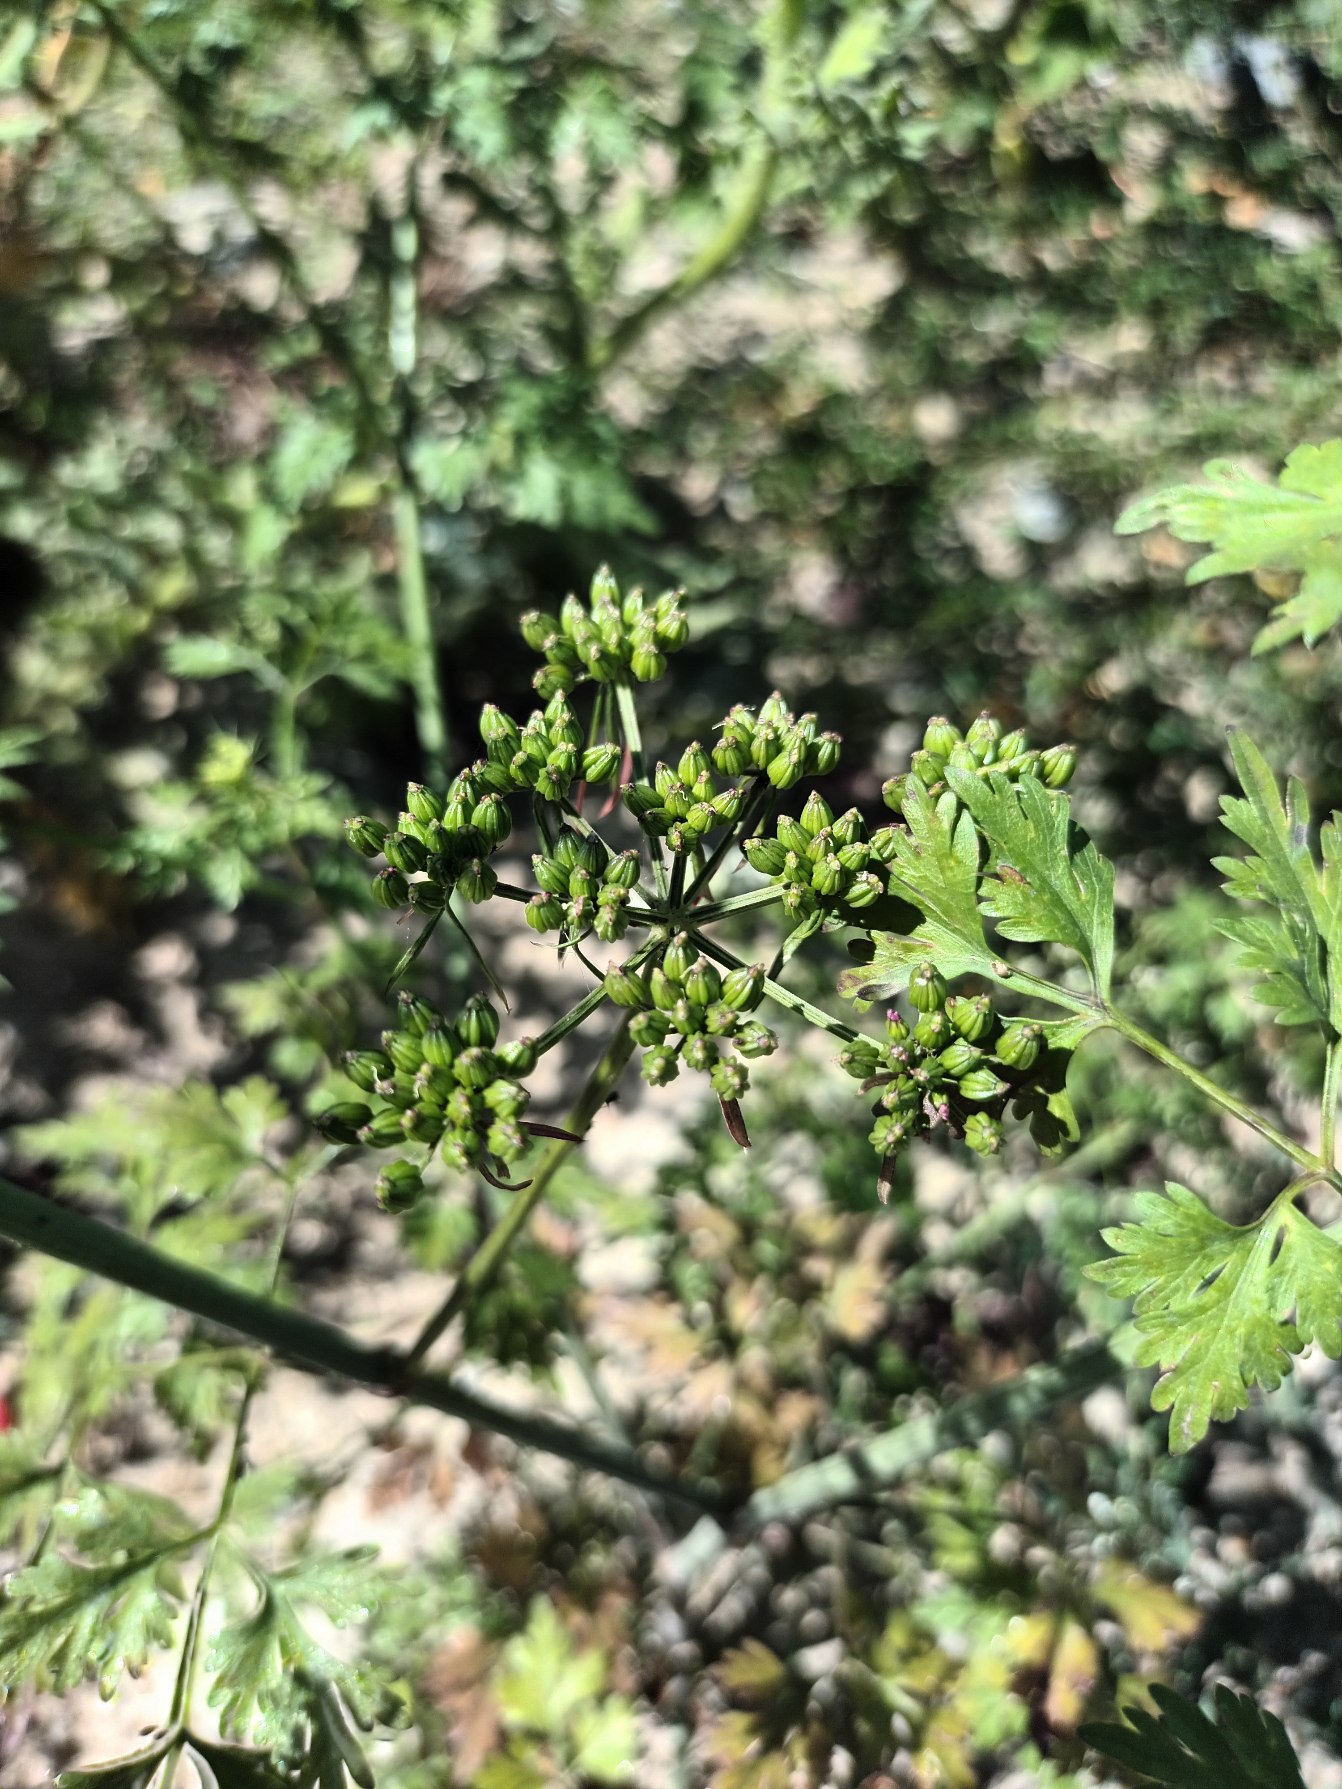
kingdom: Plantae
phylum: Tracheophyta
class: Magnoliopsida
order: Apiales
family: Apiaceae
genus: Aethusa
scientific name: Aethusa cynapium
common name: Hundepersille
